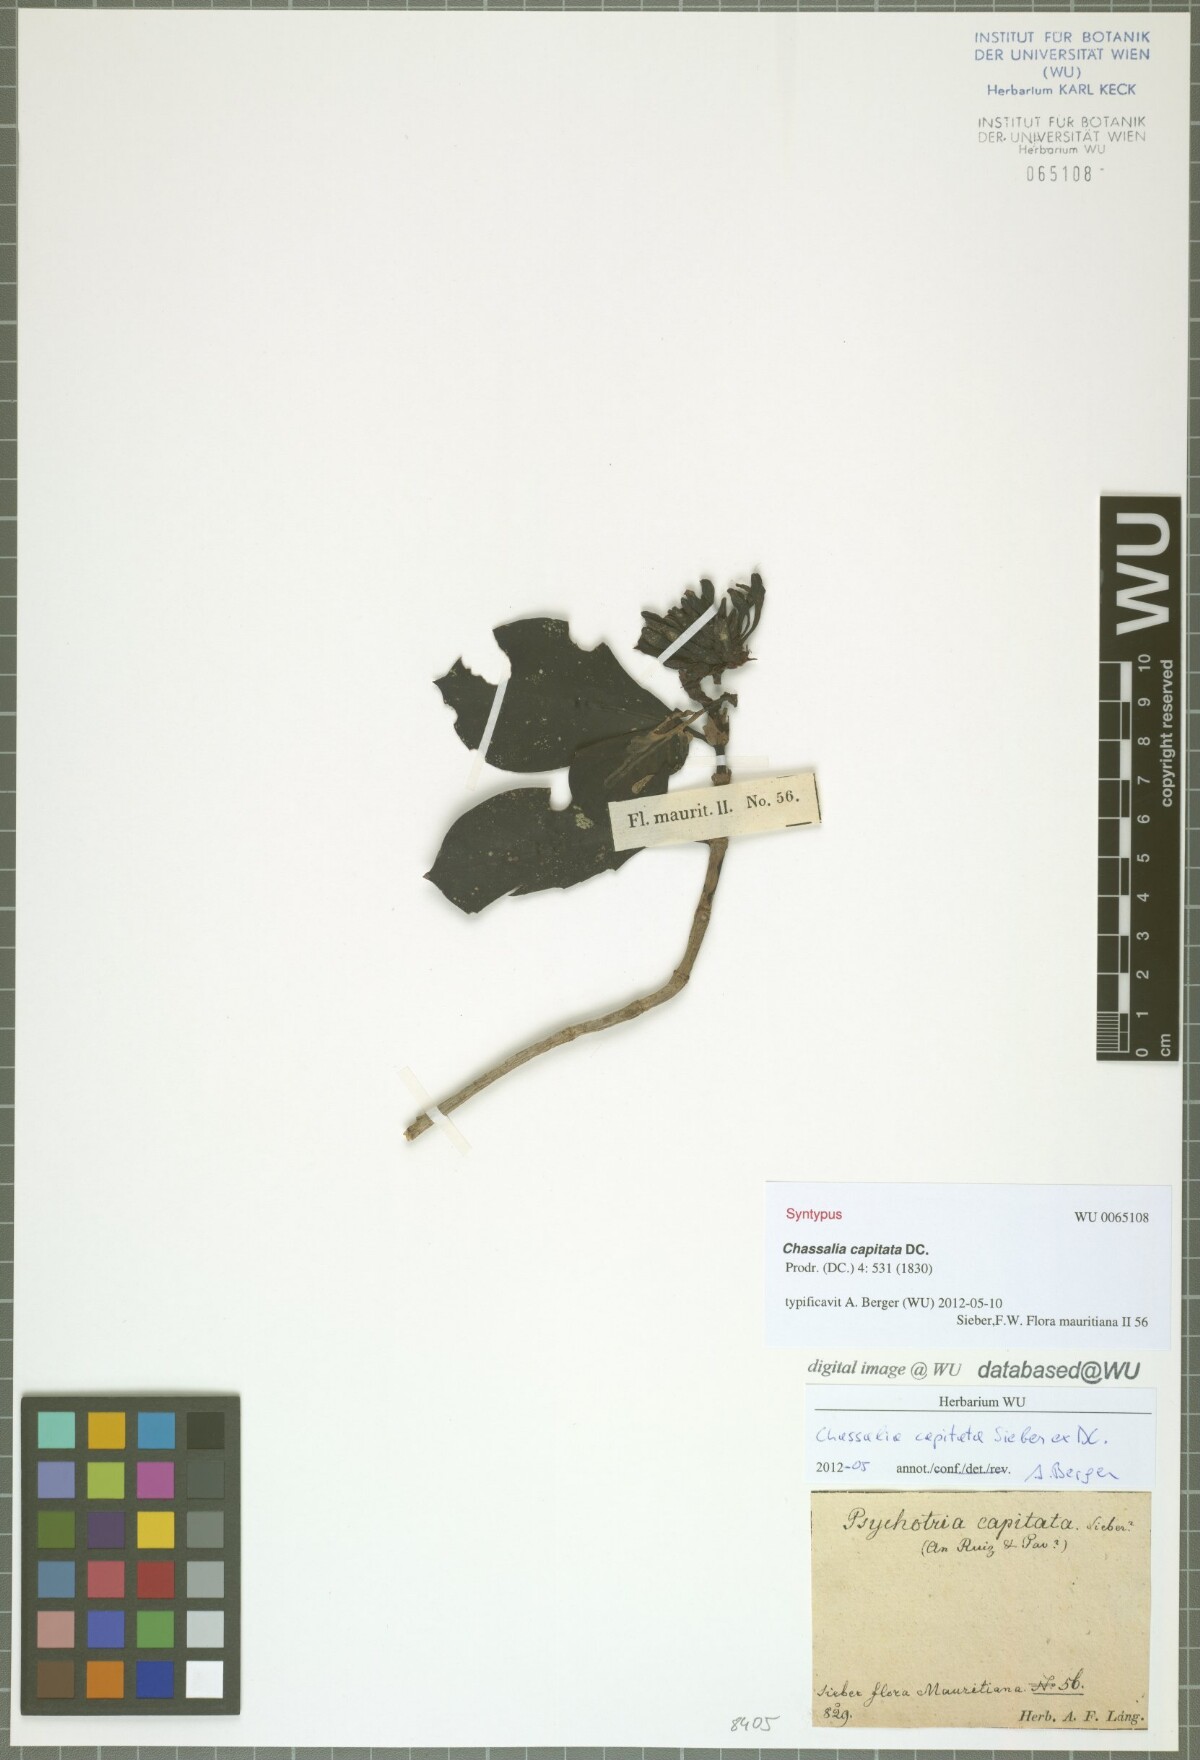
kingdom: Plantae
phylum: Tracheophyta
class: Magnoliopsida
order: Gentianales
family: Rubiaceae
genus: Chassalia
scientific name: Chassalia capitata
